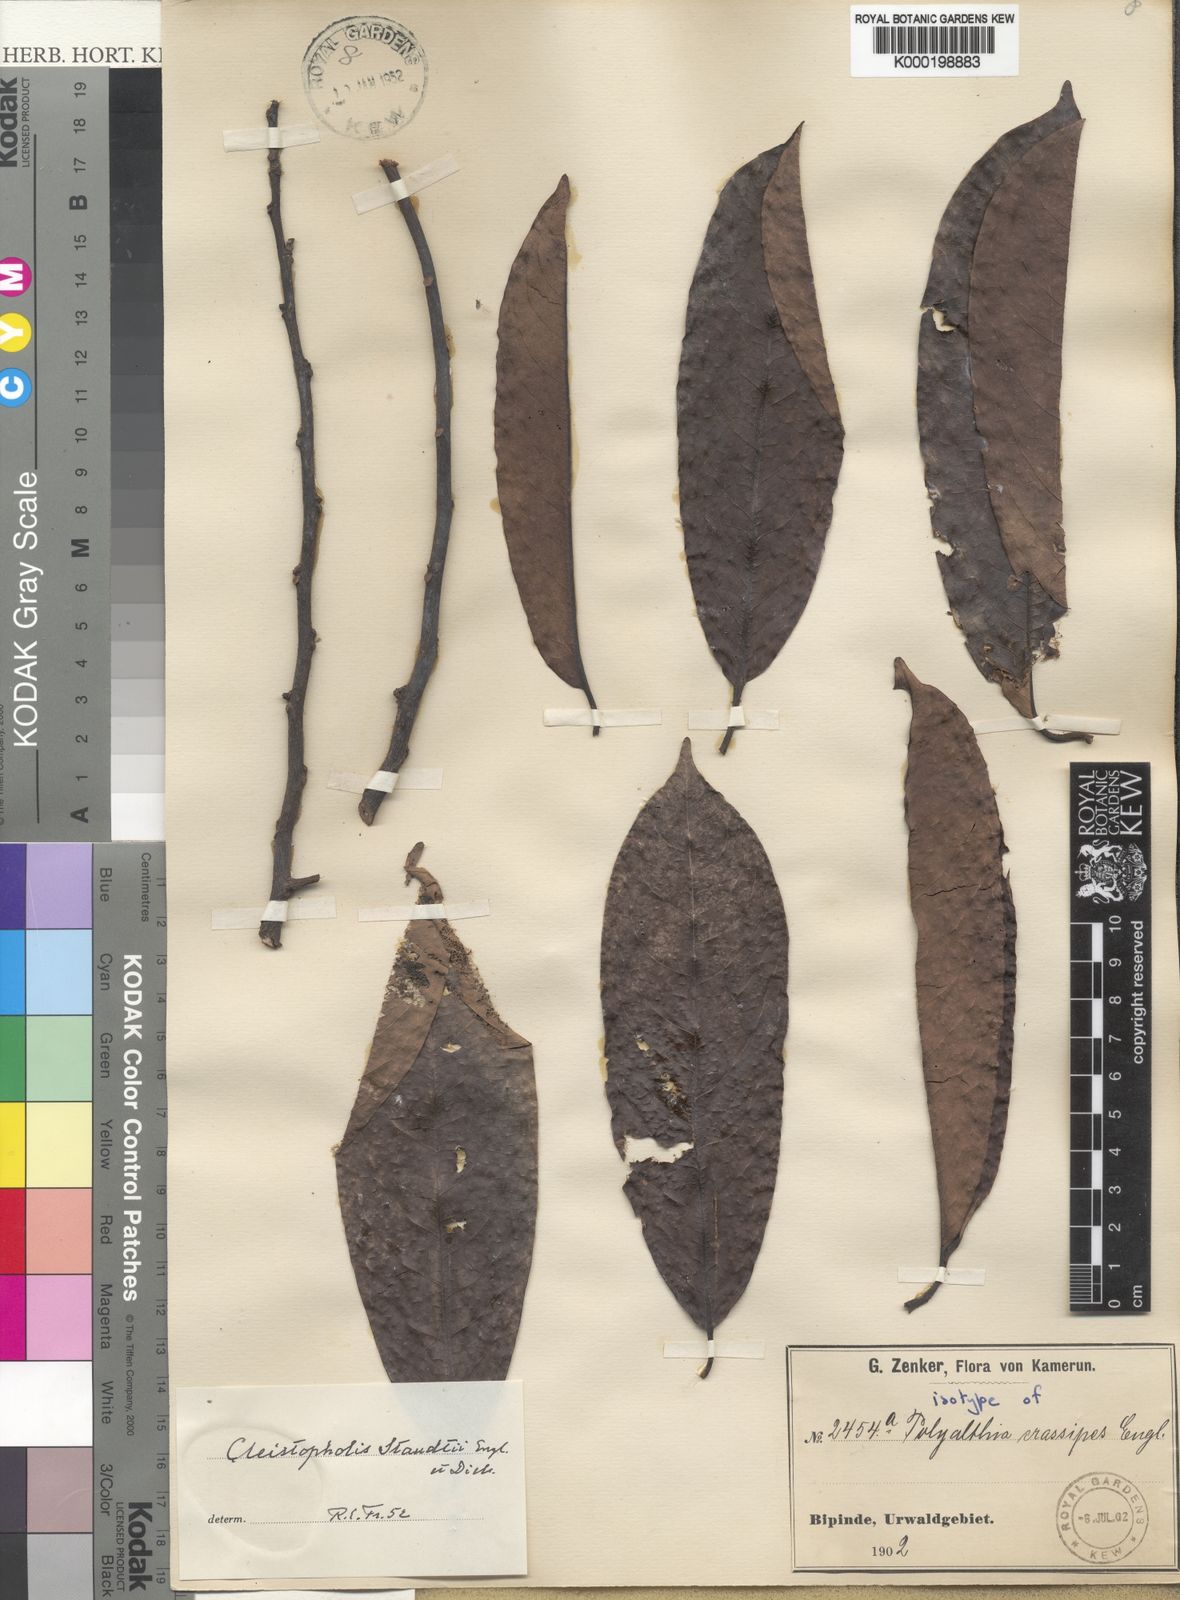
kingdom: Plantae
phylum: Tracheophyta
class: Magnoliopsida
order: Magnoliales
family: Annonaceae
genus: Cleistopholis
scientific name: Cleistopholis staudtii
